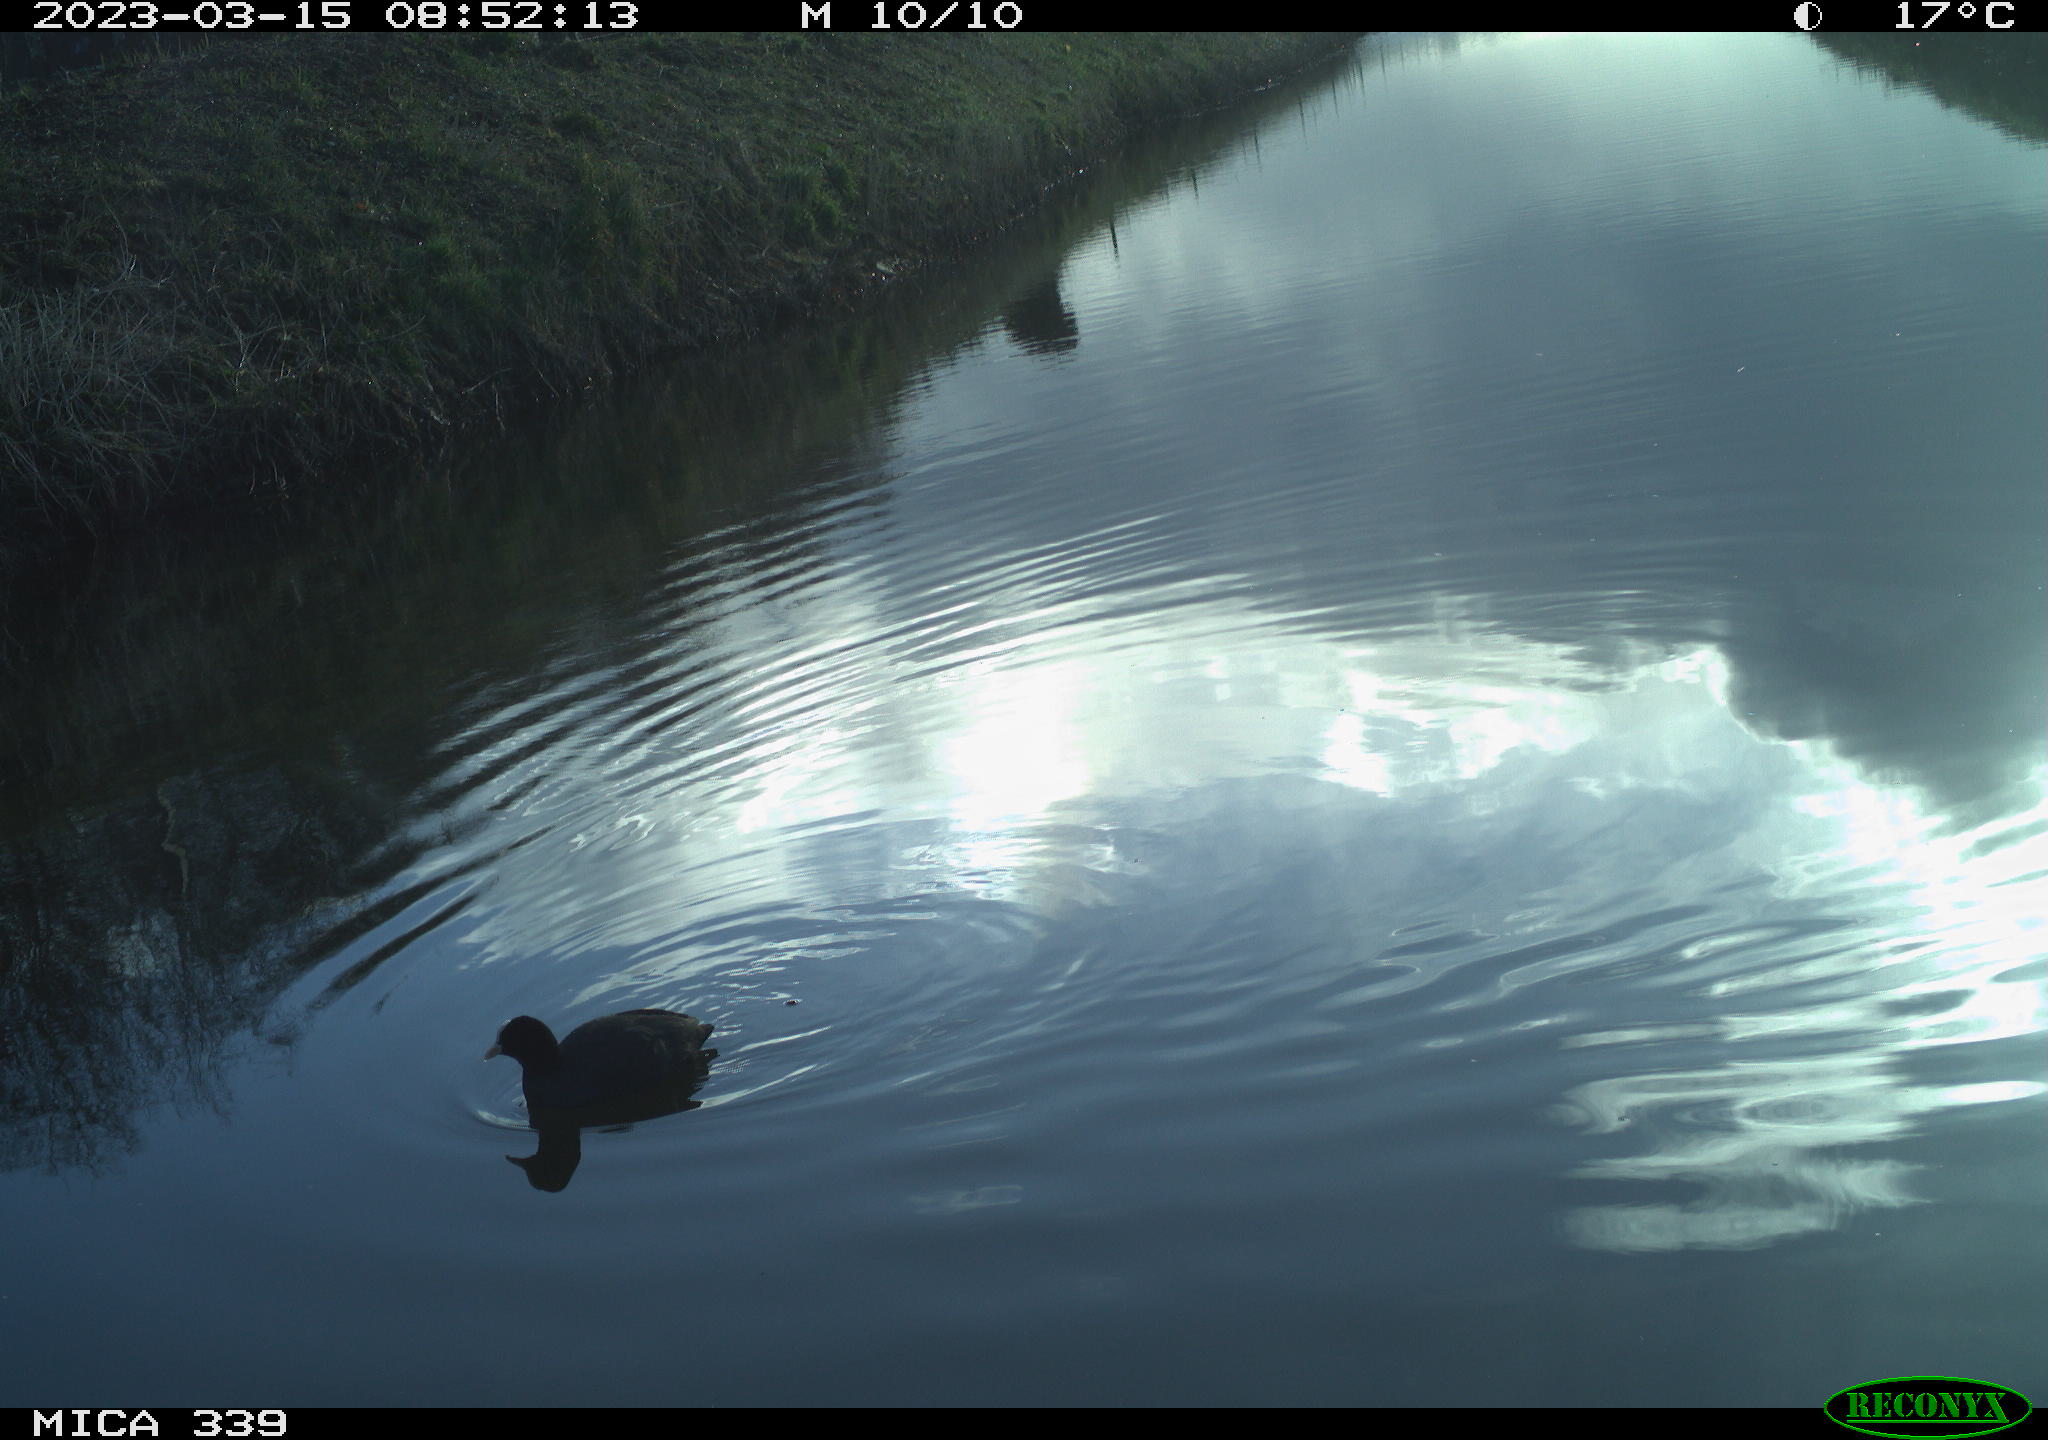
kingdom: Animalia
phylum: Chordata
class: Aves
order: Gruiformes
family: Rallidae
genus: Fulica
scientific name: Fulica atra
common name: Eurasian coot
